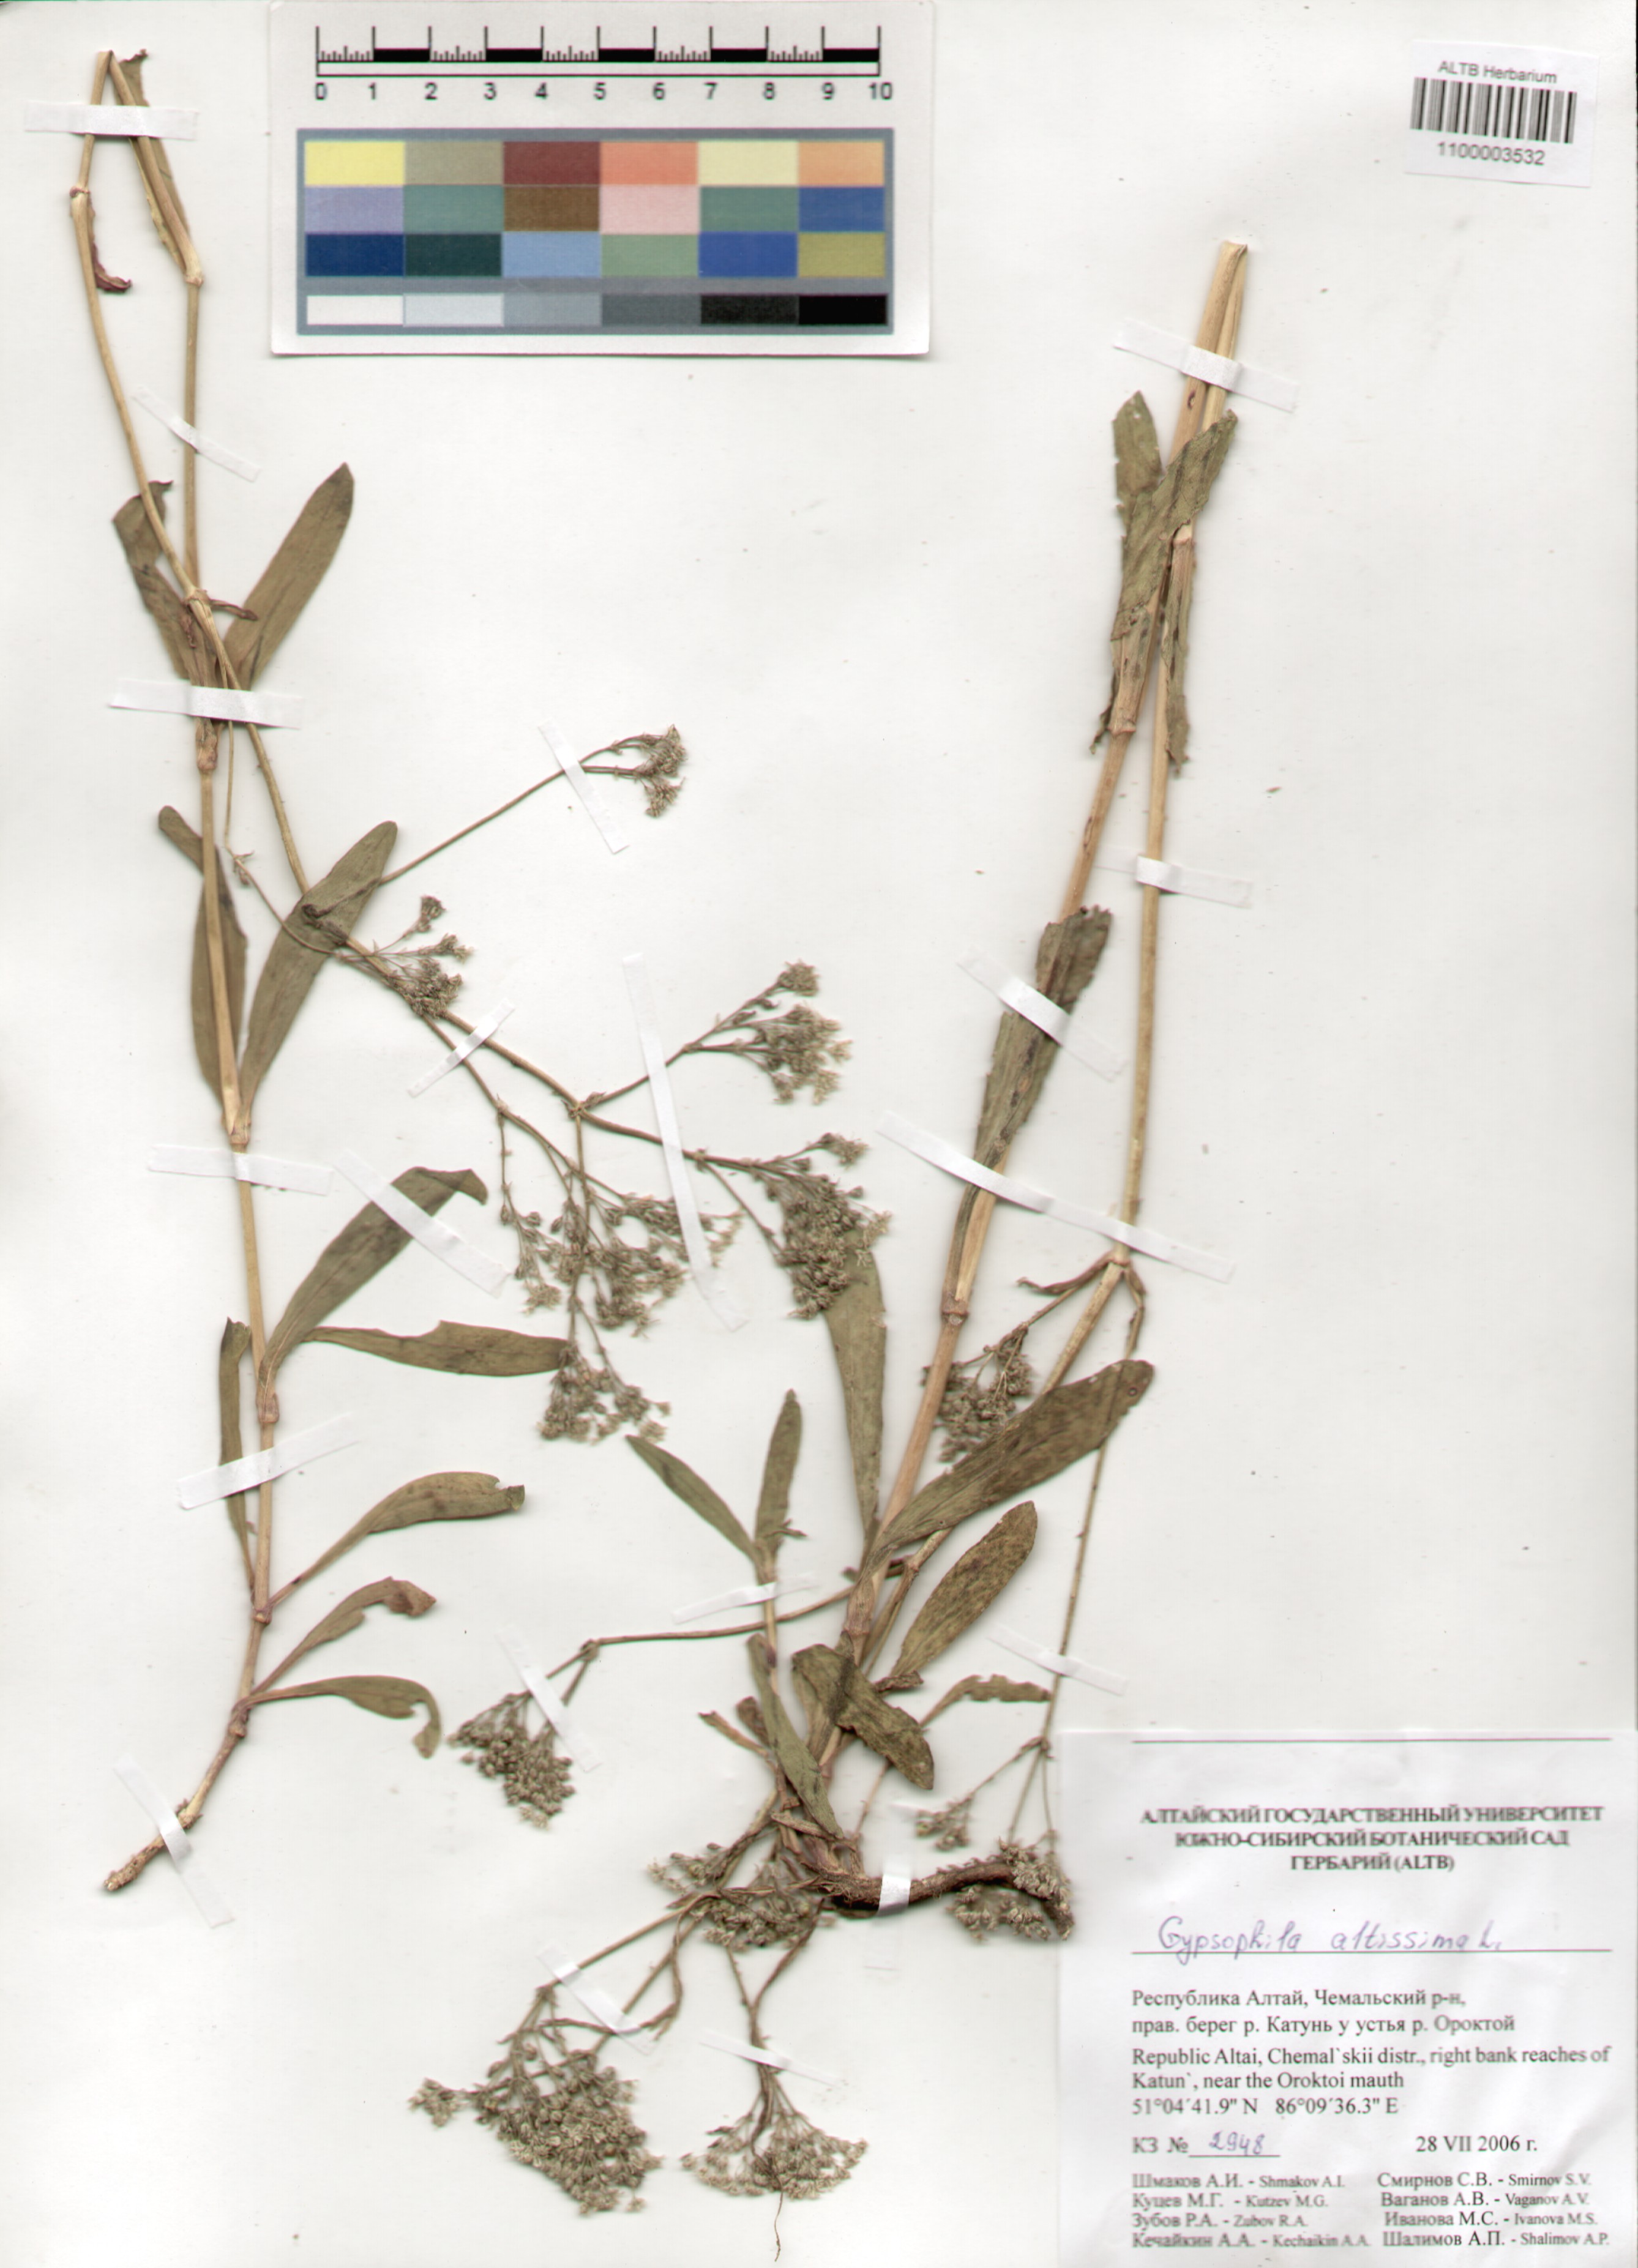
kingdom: Plantae
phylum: Tracheophyta
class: Magnoliopsida
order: Caryophyllales
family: Caryophyllaceae
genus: Gypsophila
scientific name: Gypsophila altissima
